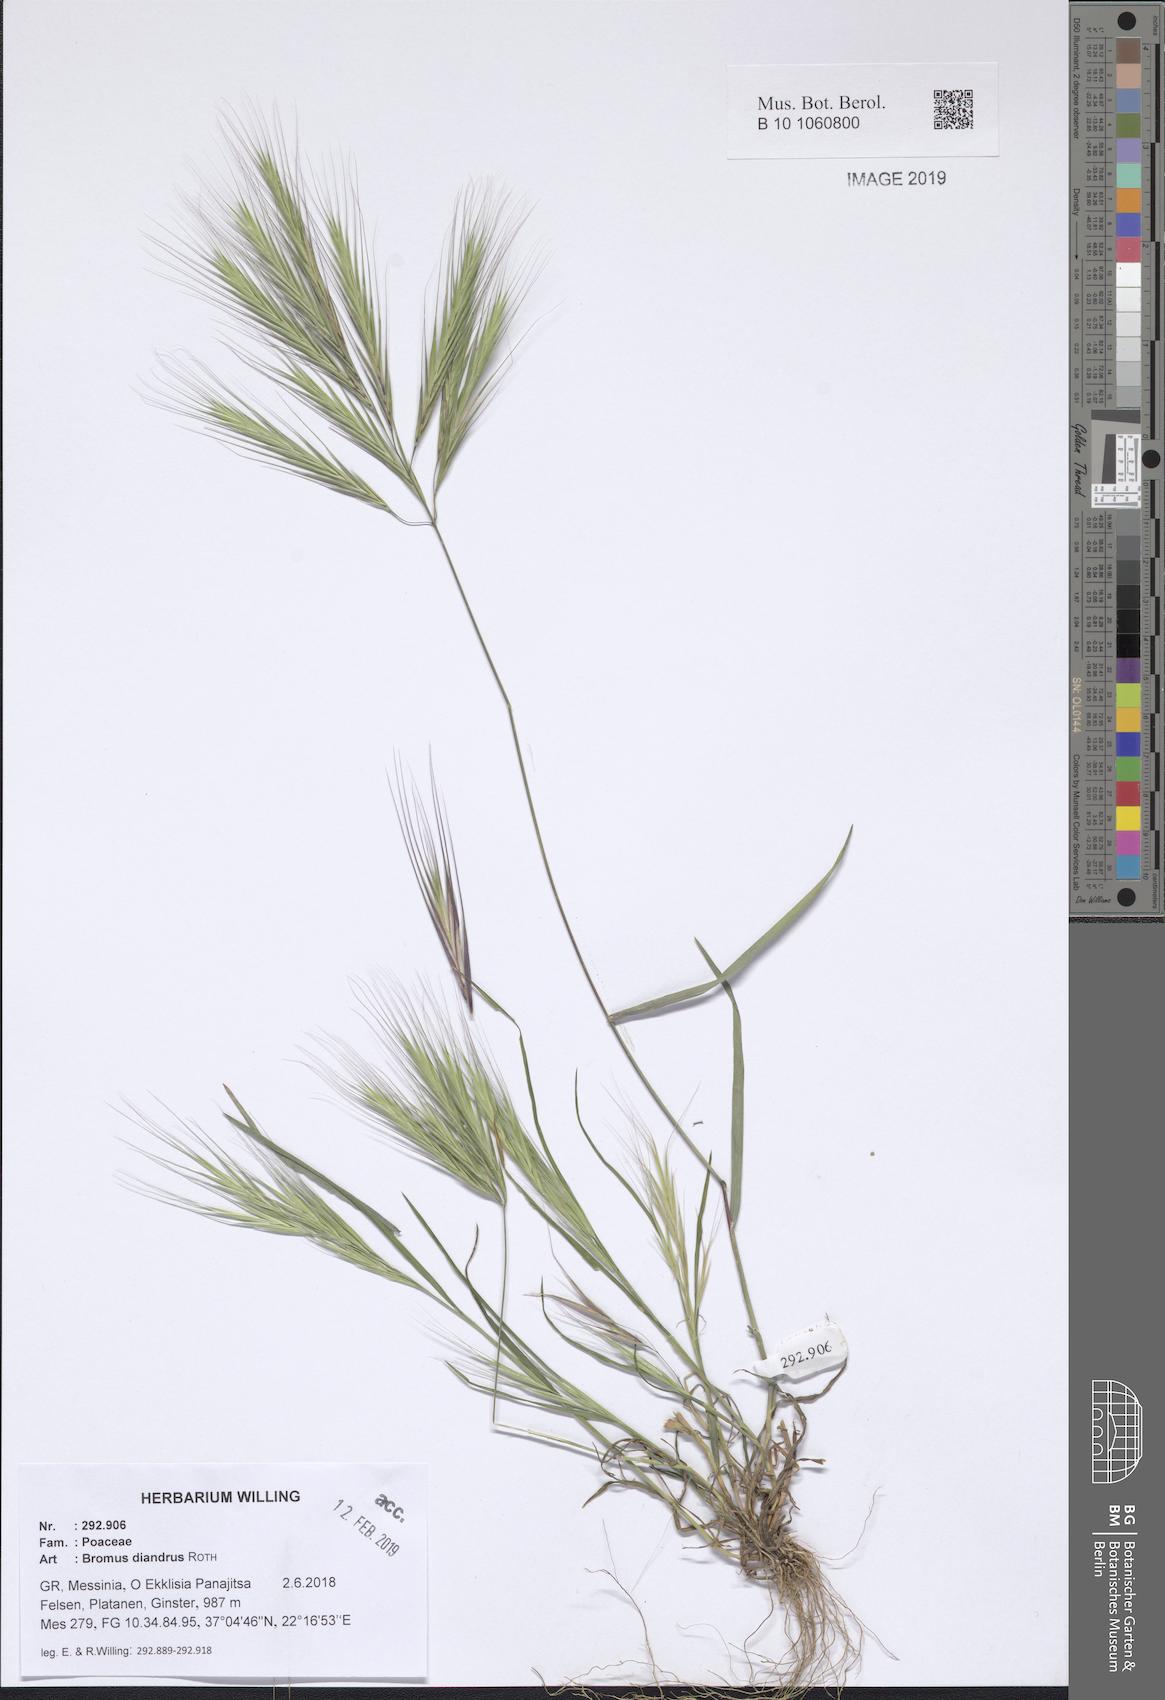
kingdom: Plantae
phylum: Tracheophyta
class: Liliopsida
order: Poales
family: Poaceae
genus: Bromus
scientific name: Bromus diandrus
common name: Ripgut brome
